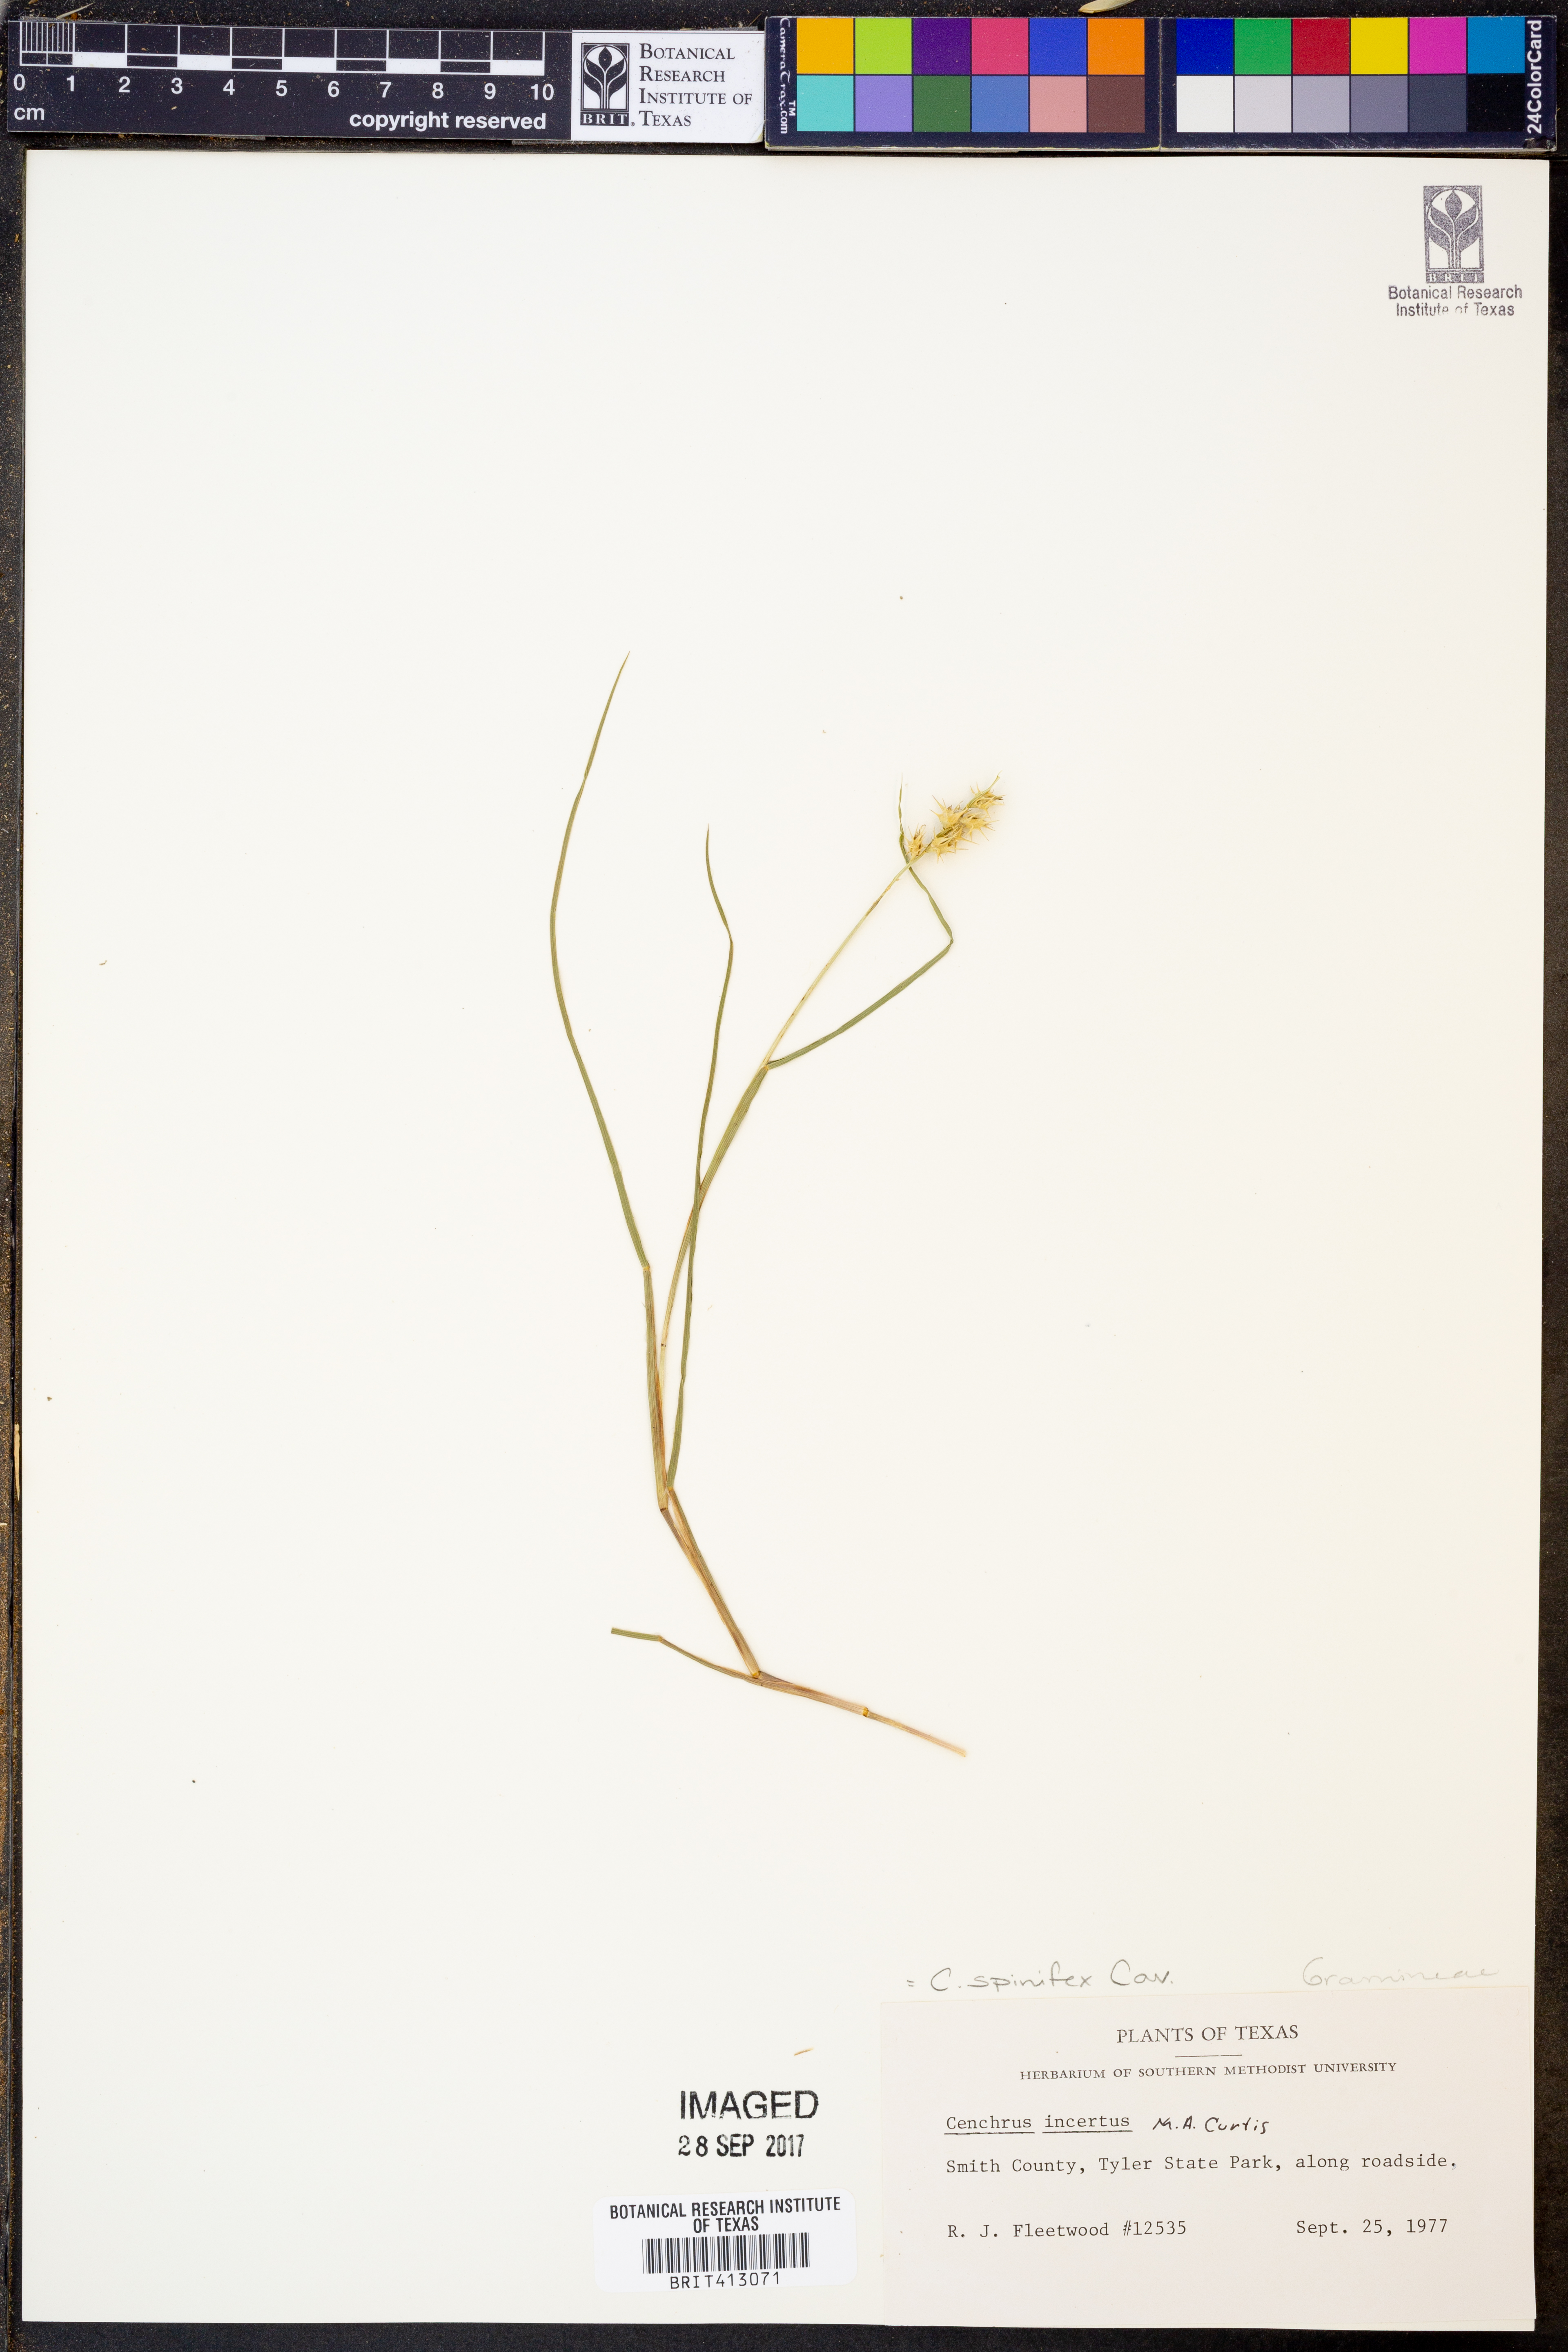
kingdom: Plantae
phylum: Tracheophyta
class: Liliopsida
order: Poales
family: Poaceae
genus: Cenchrus
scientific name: Cenchrus spinifex
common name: Coast sandbur
